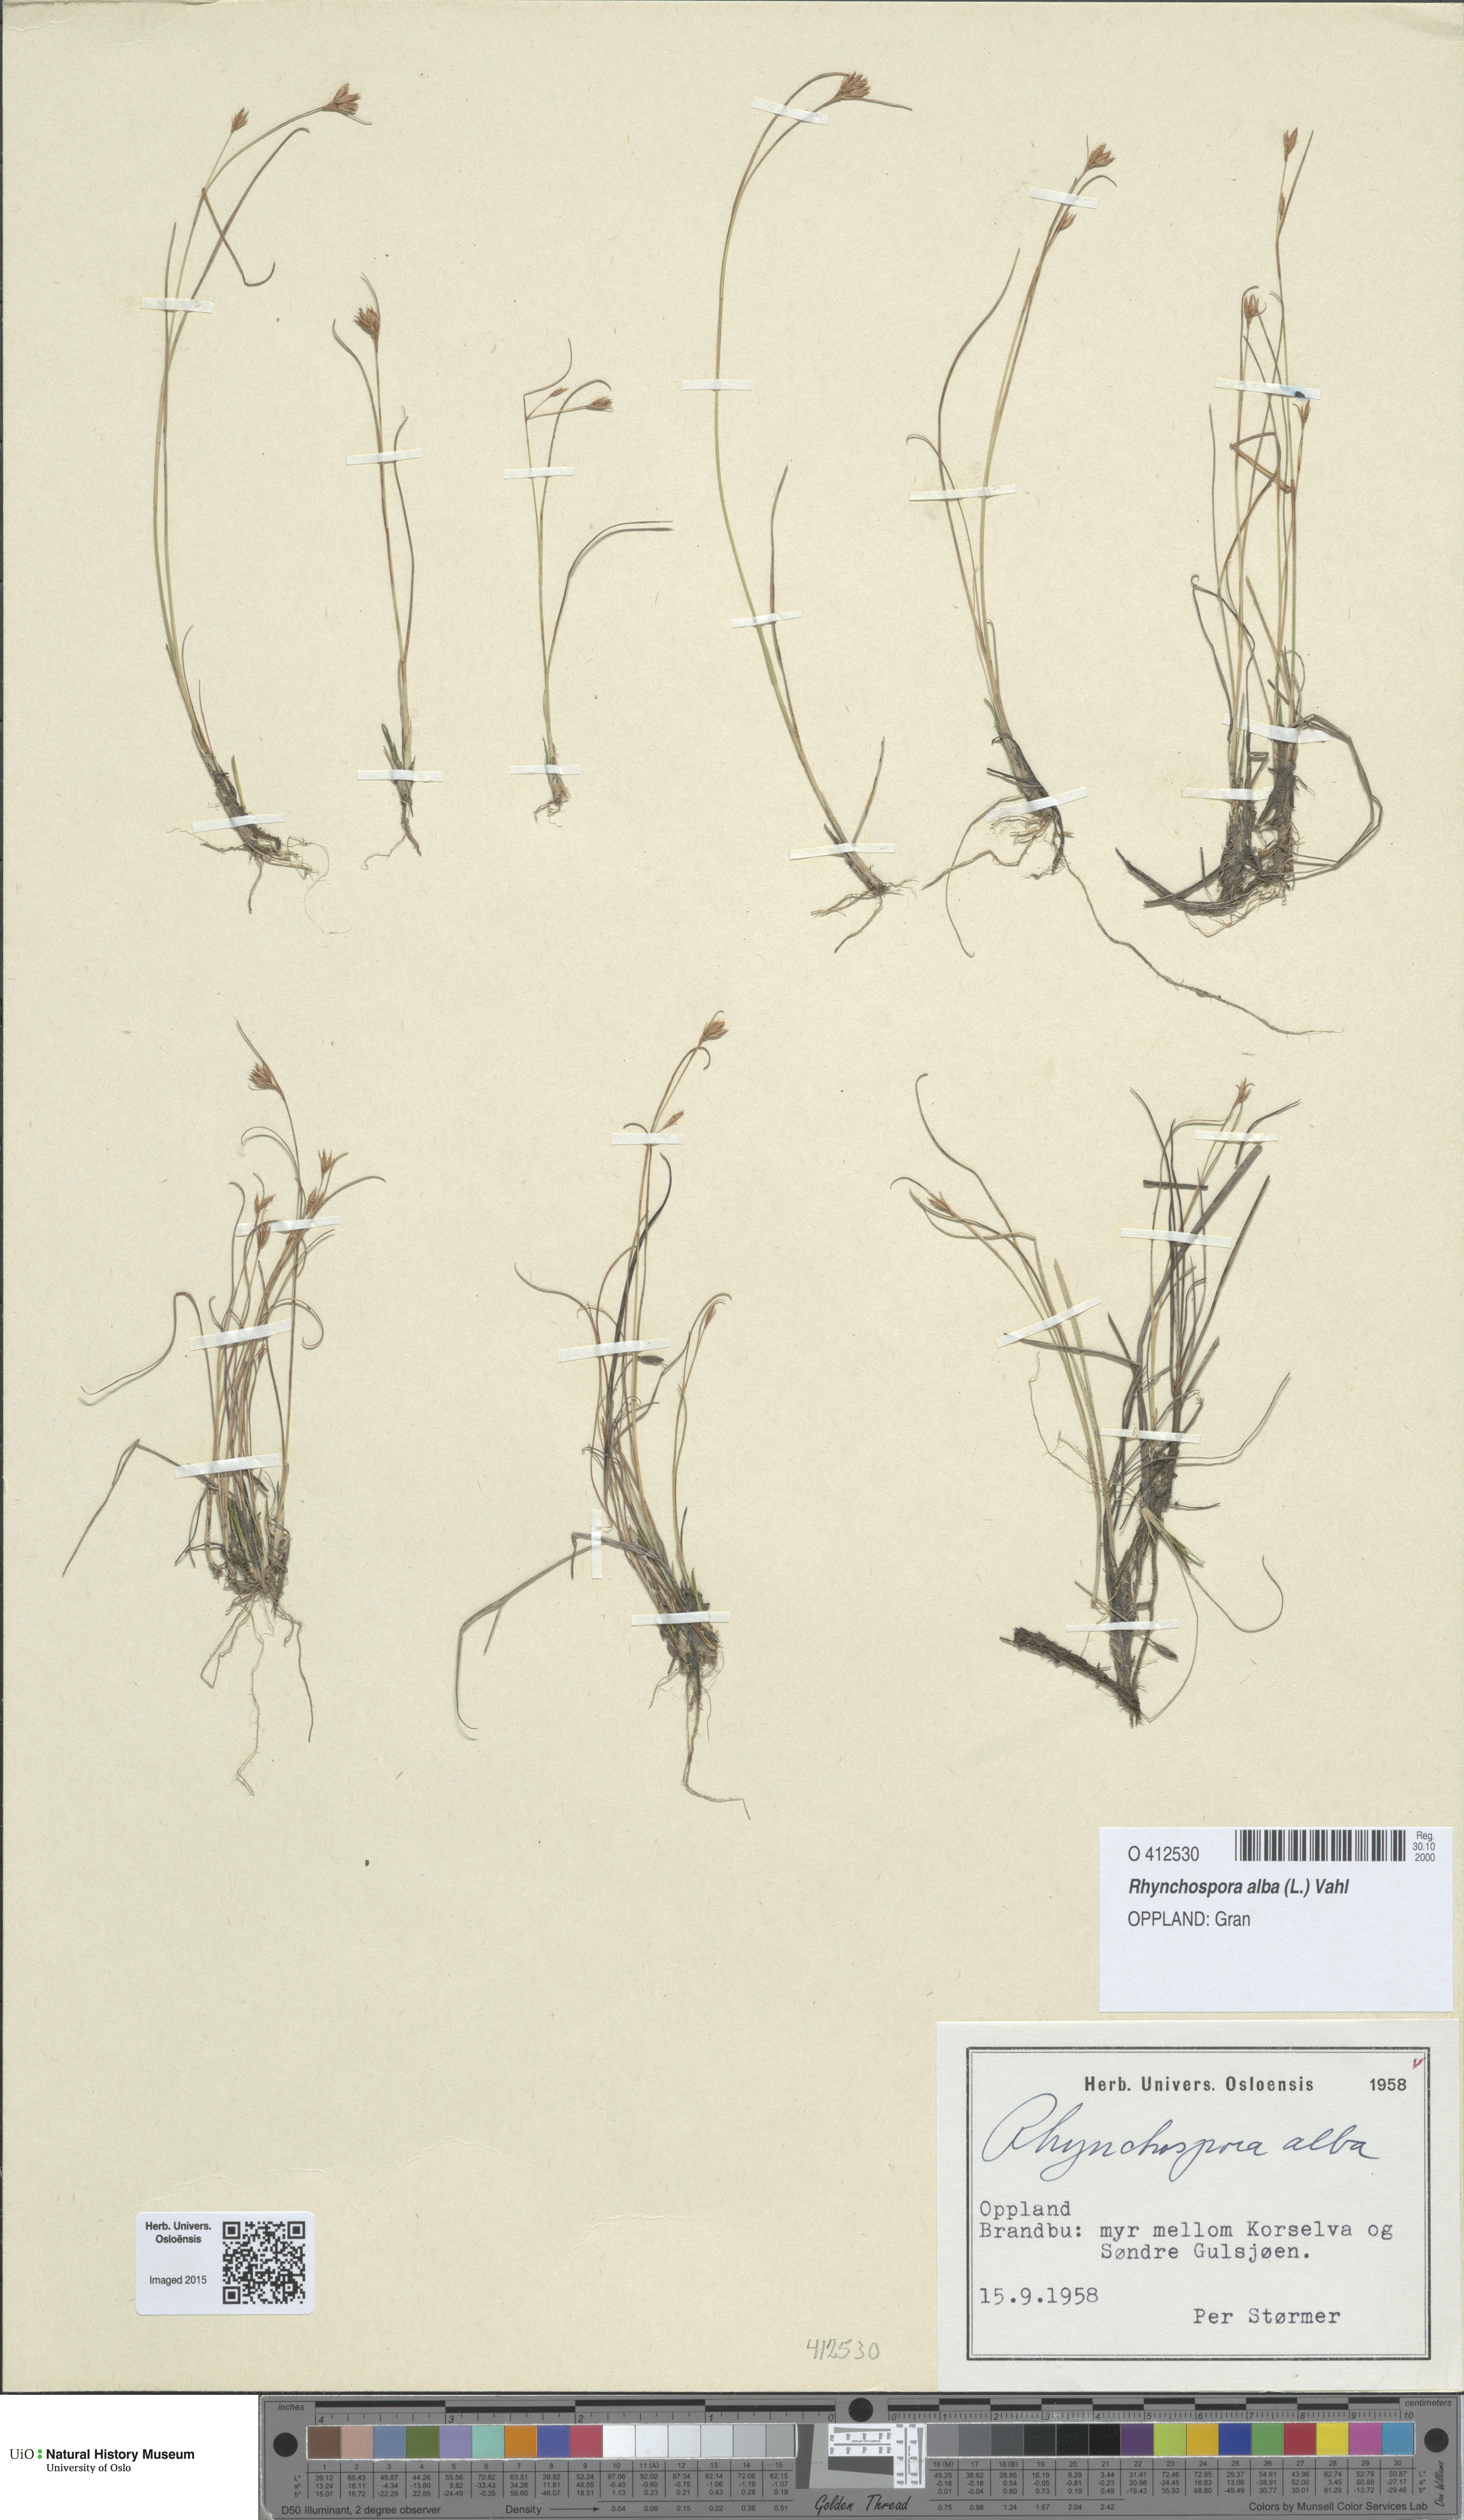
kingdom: Plantae
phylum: Tracheophyta
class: Liliopsida
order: Poales
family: Cyperaceae
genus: Rhynchospora
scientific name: Rhynchospora alba
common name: White beak-sedge
